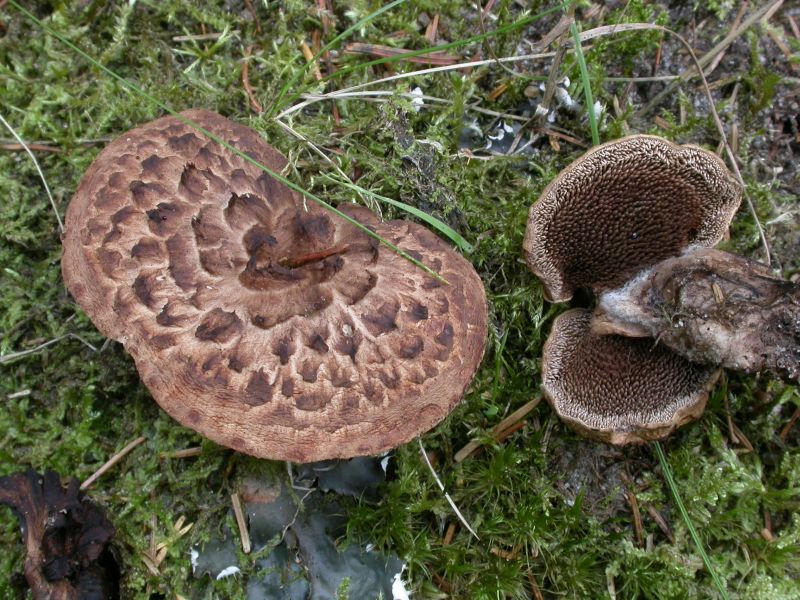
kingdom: Fungi
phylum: Basidiomycota
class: Agaricomycetes
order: Thelephorales
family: Bankeraceae
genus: Sarcodon
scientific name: Sarcodon imbricatus
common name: skællet kødpigsvamp
